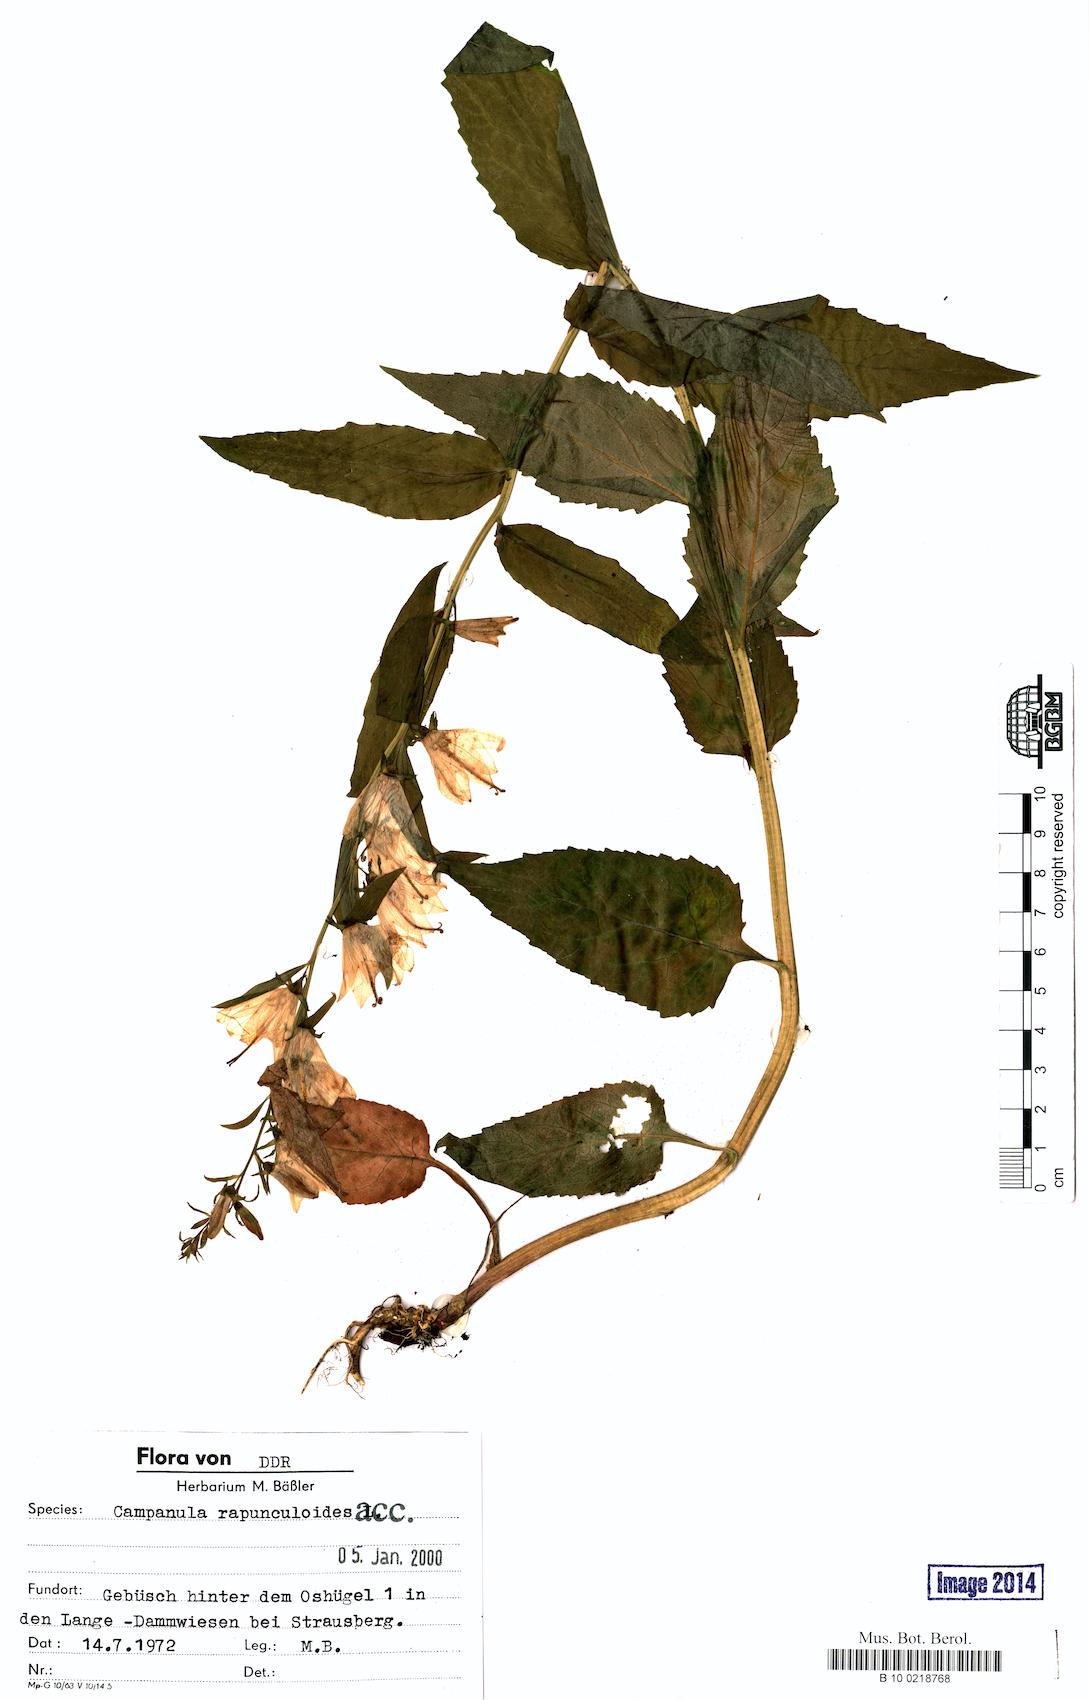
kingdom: Plantae
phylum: Tracheophyta
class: Magnoliopsida
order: Asterales
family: Campanulaceae
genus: Campanula
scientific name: Campanula rapunculoides
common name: Creeping bellflower
